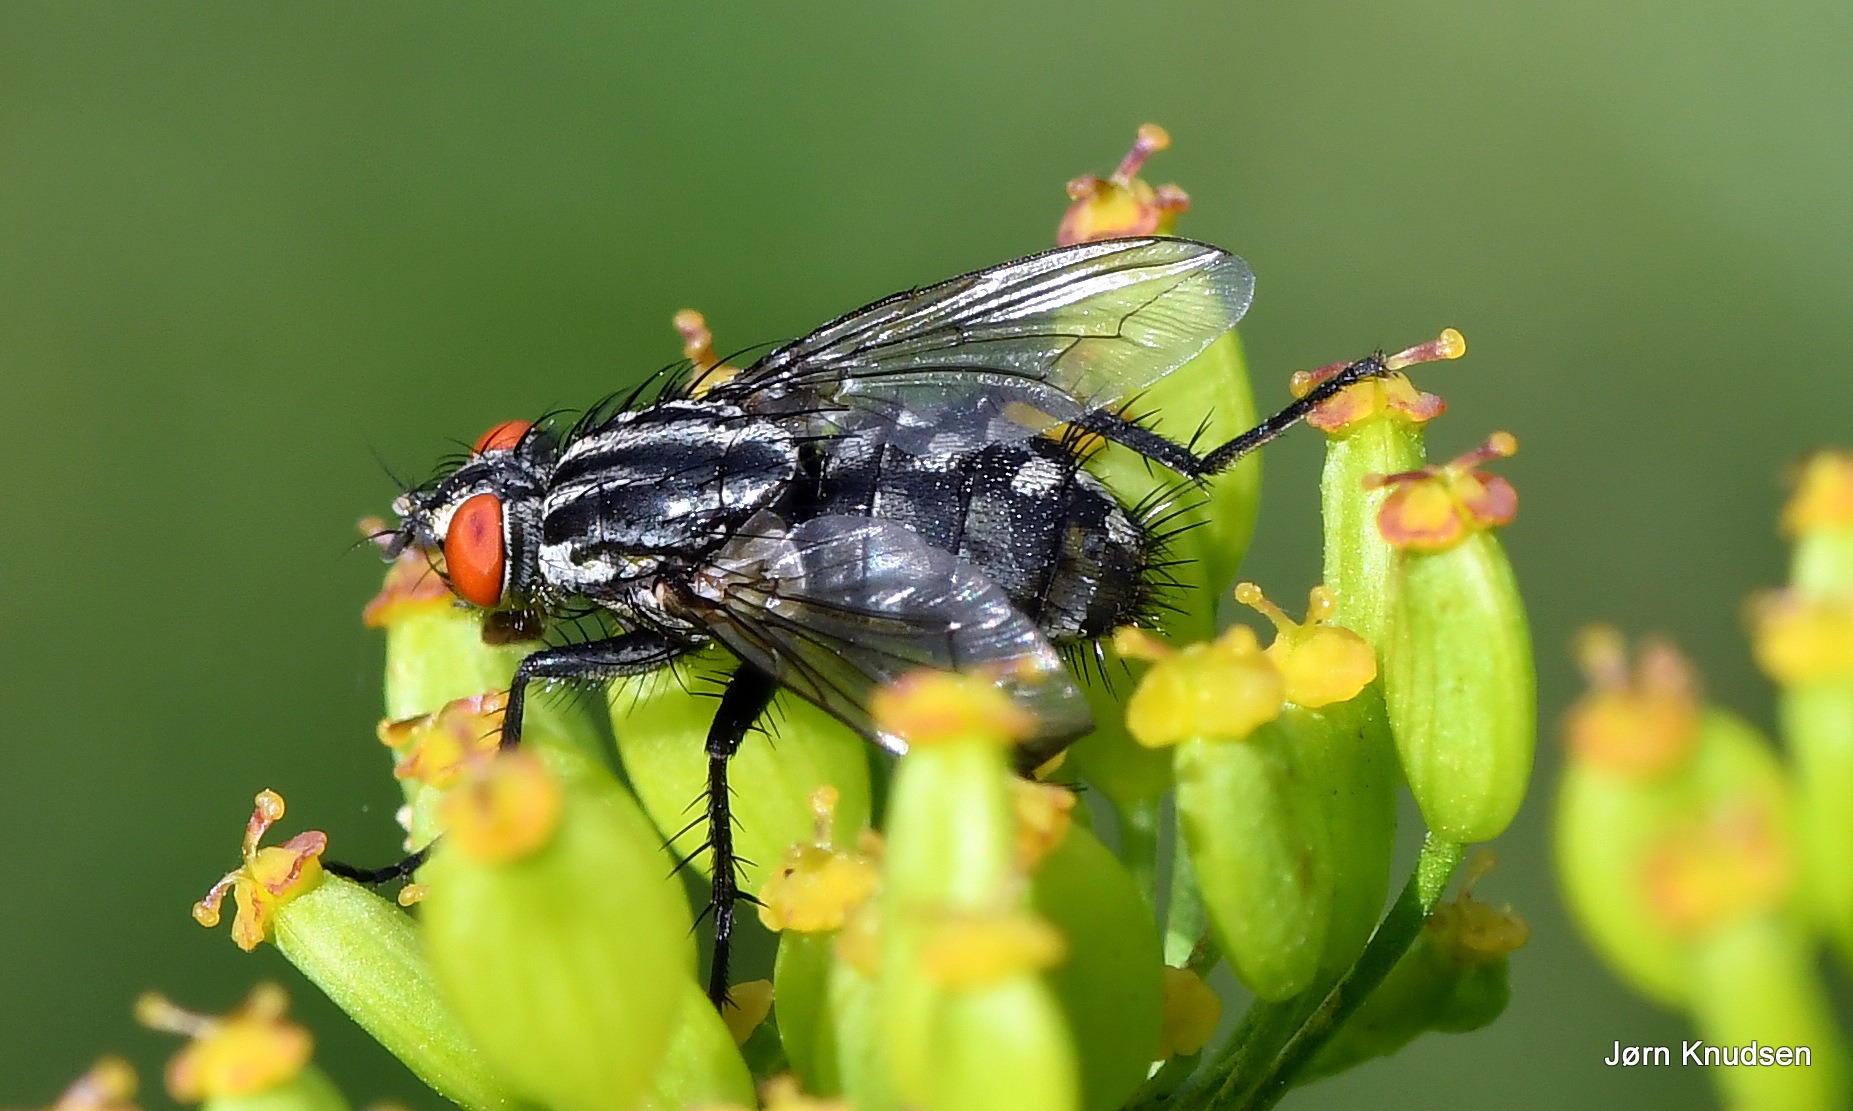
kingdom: Animalia
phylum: Arthropoda
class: Insecta
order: Diptera
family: Sarcophagidae
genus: Sarcophaga
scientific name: Sarcophaga
